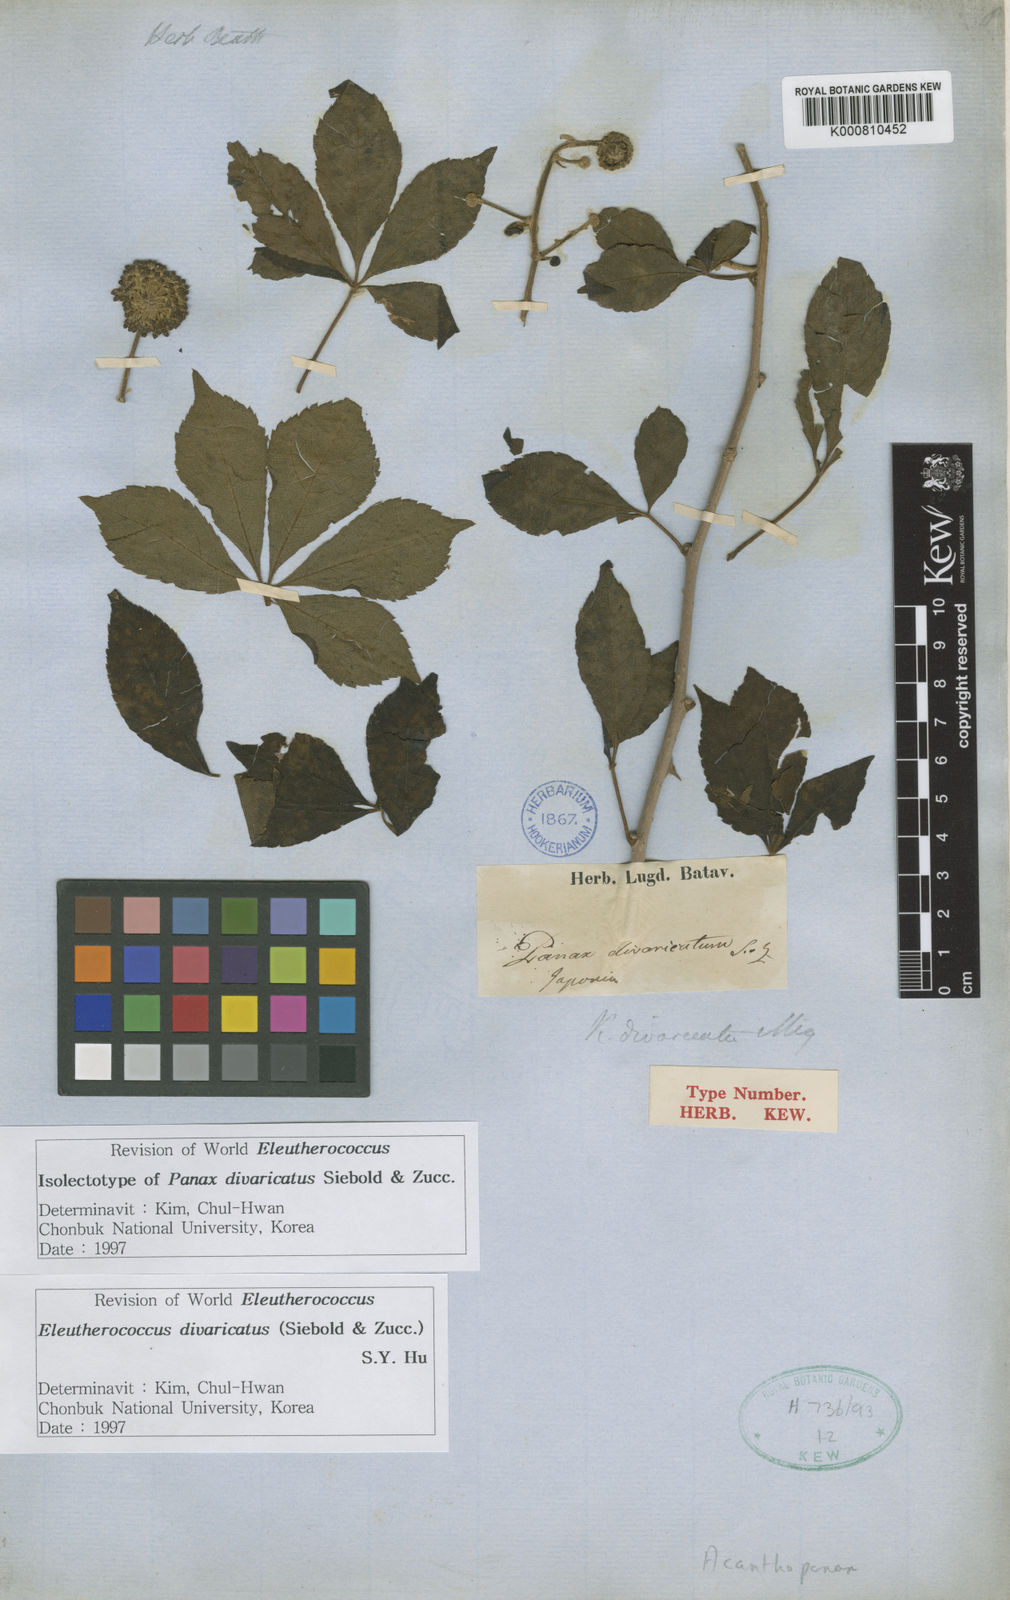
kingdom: Plantae
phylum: Tracheophyta
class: Magnoliopsida
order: Apiales
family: Araliaceae
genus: Eleutherococcus
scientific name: Eleutherococcus divaricatus
